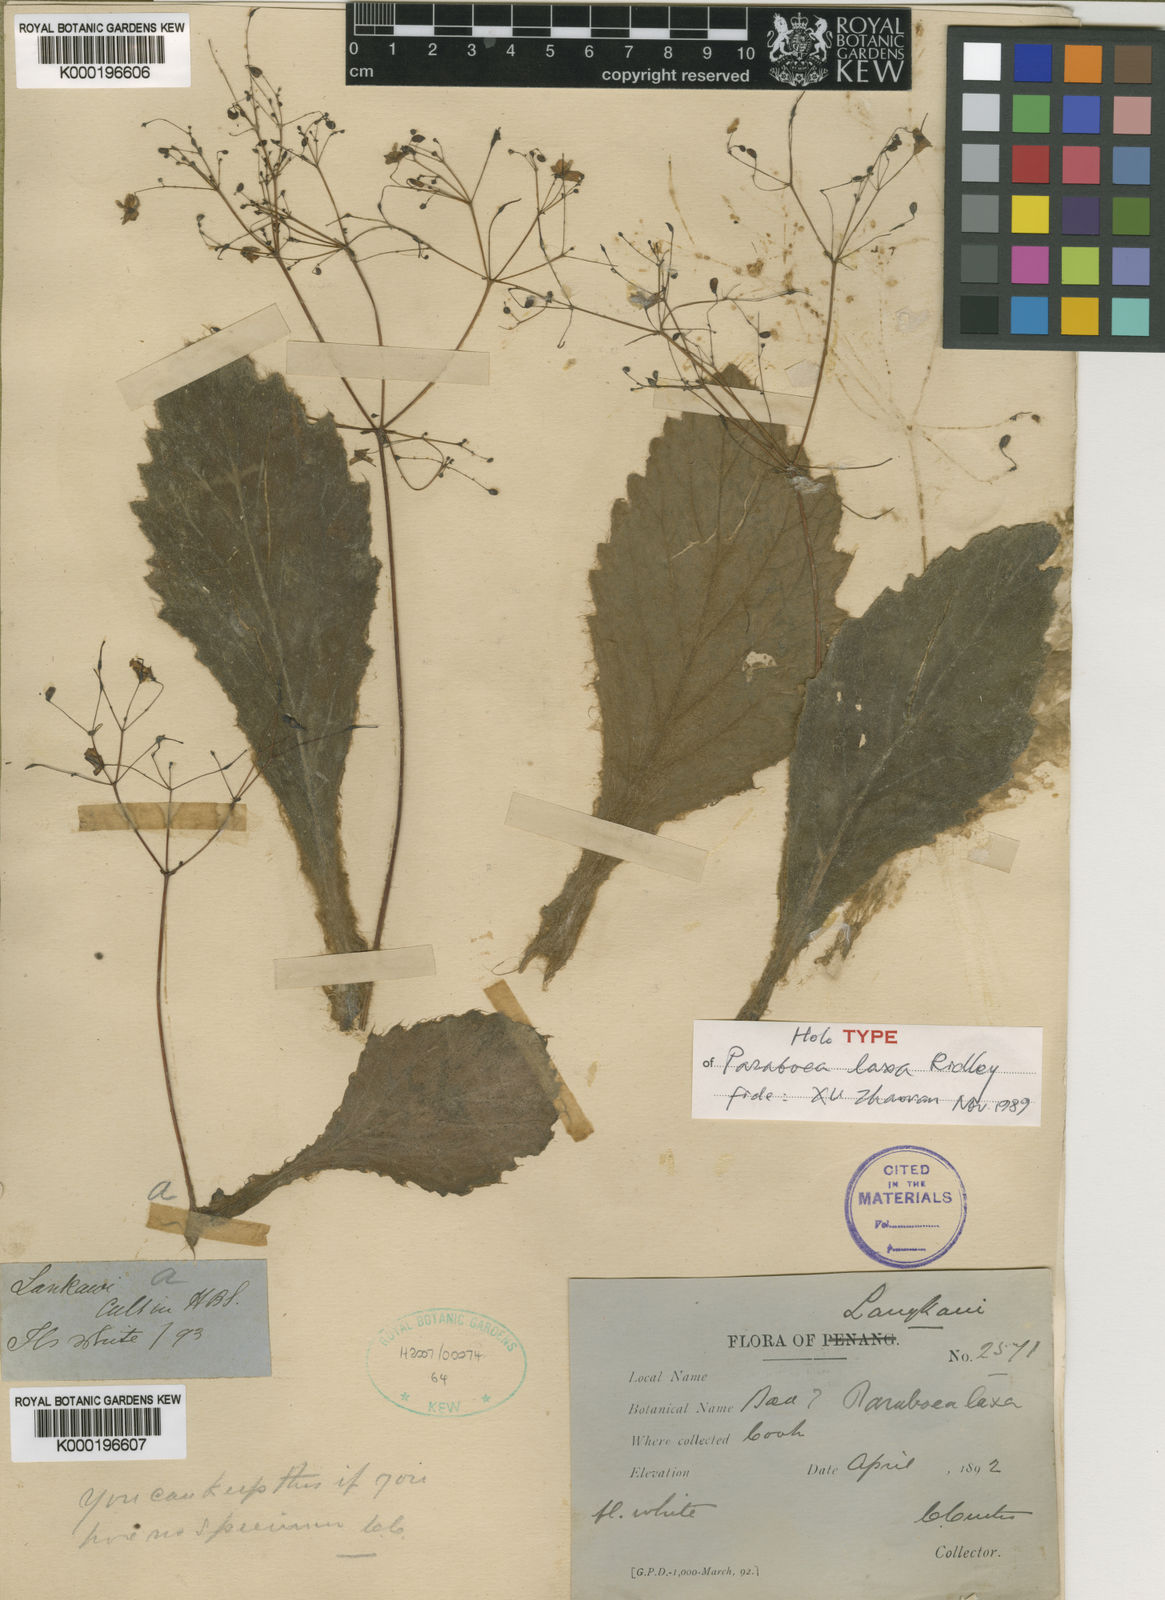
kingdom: Plantae
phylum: Tracheophyta
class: Magnoliopsida
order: Lamiales
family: Gesneriaceae
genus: Paraboea
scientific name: Paraboea laxa
